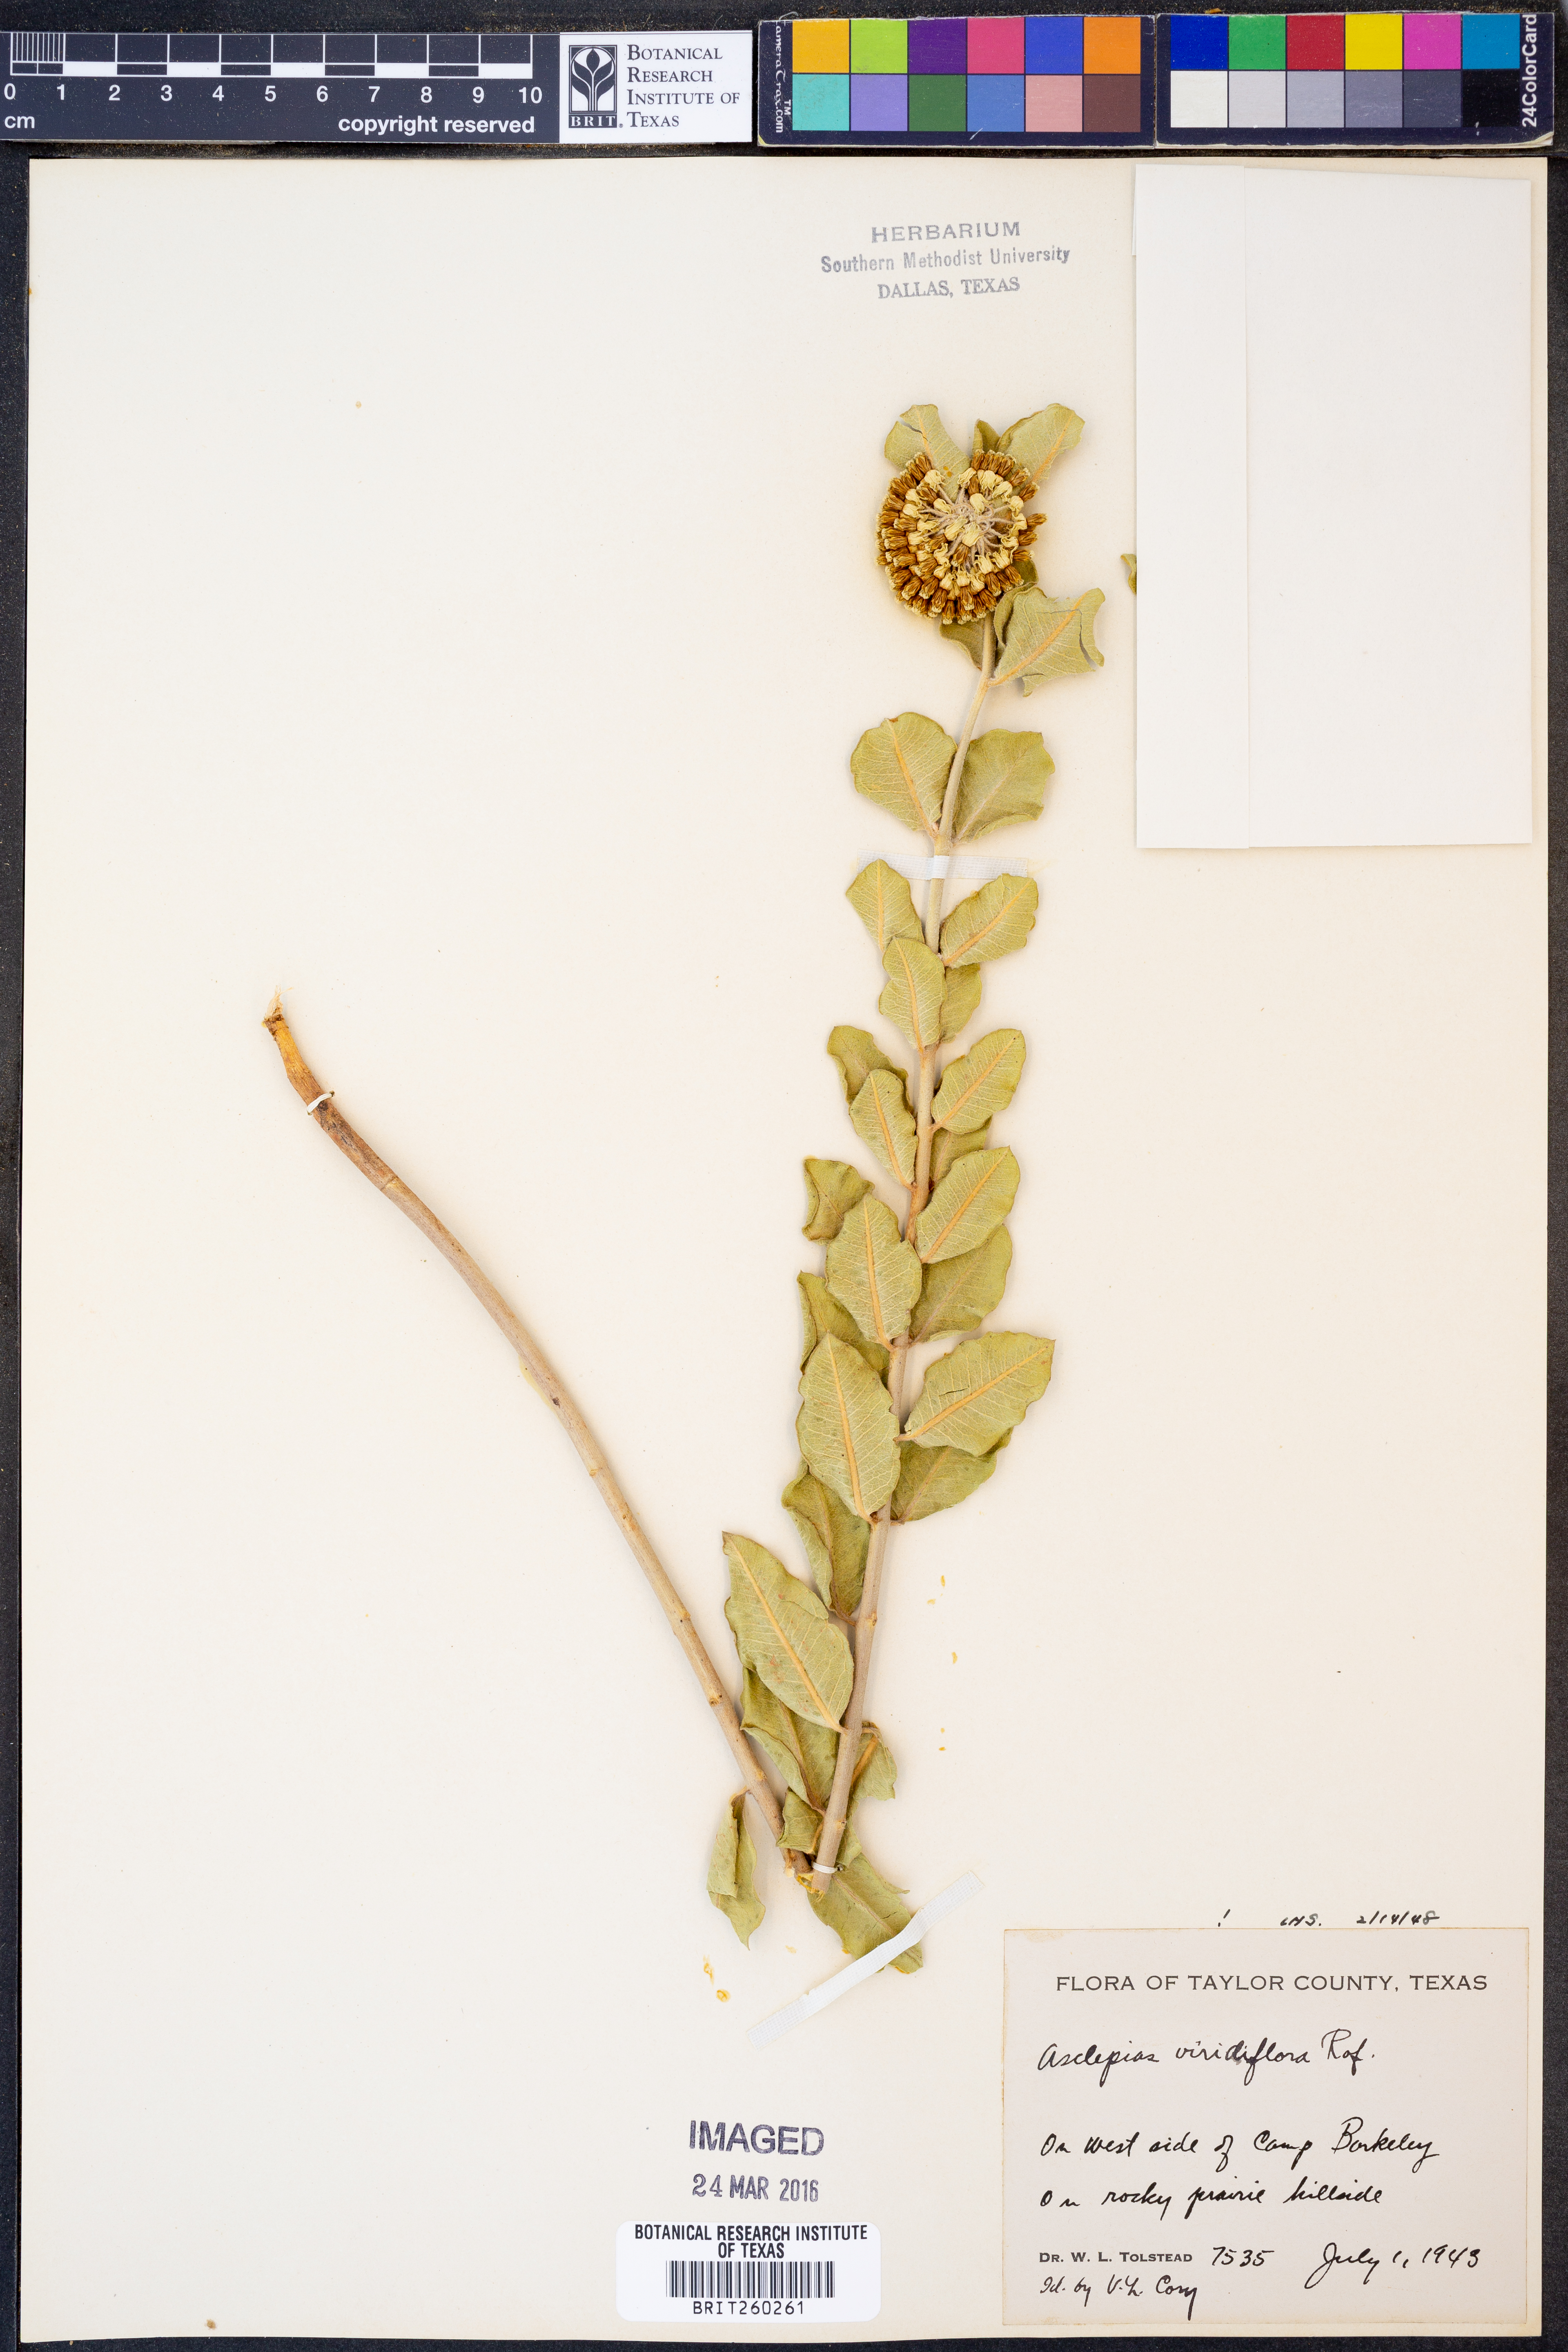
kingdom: Plantae
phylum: Tracheophyta
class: Magnoliopsida
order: Gentianales
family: Apocynaceae
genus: Asclepias
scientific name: Asclepias viridiflora
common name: Green comet milkweed
